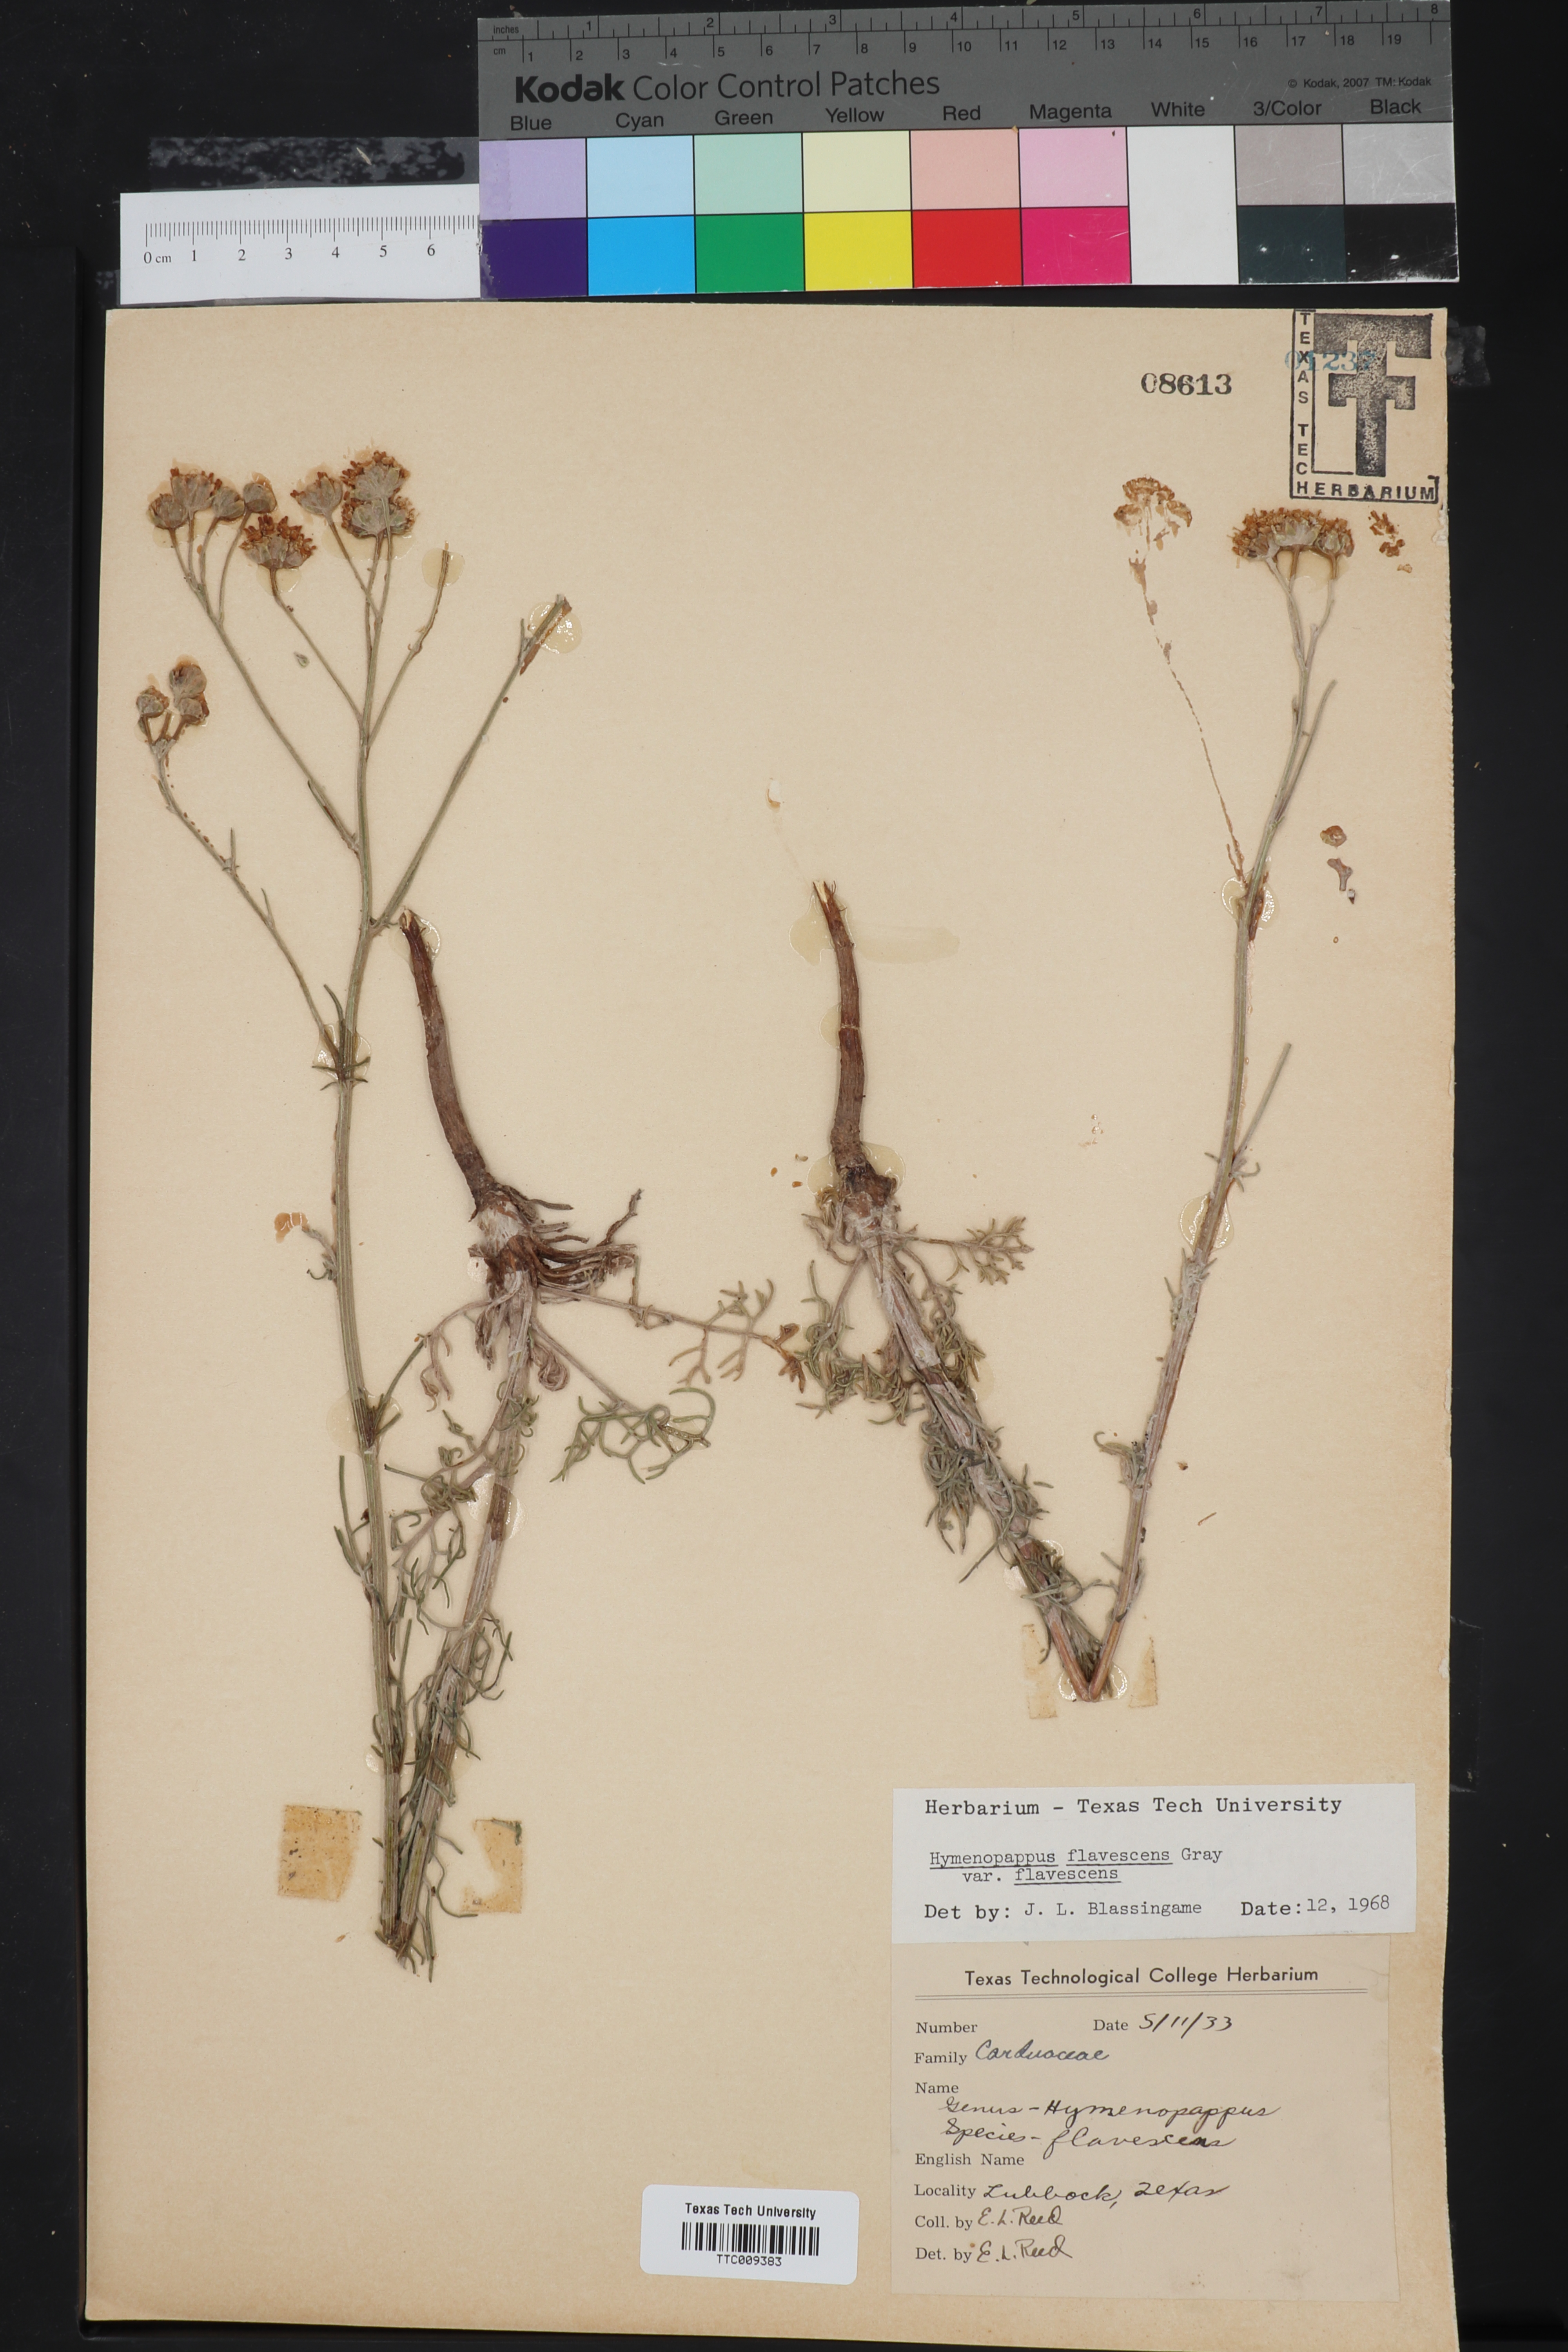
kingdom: Plantae
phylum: Tracheophyta
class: Magnoliopsida
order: Asterales
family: Asteraceae
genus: Hymenopappus
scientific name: Hymenopappus flavescens
